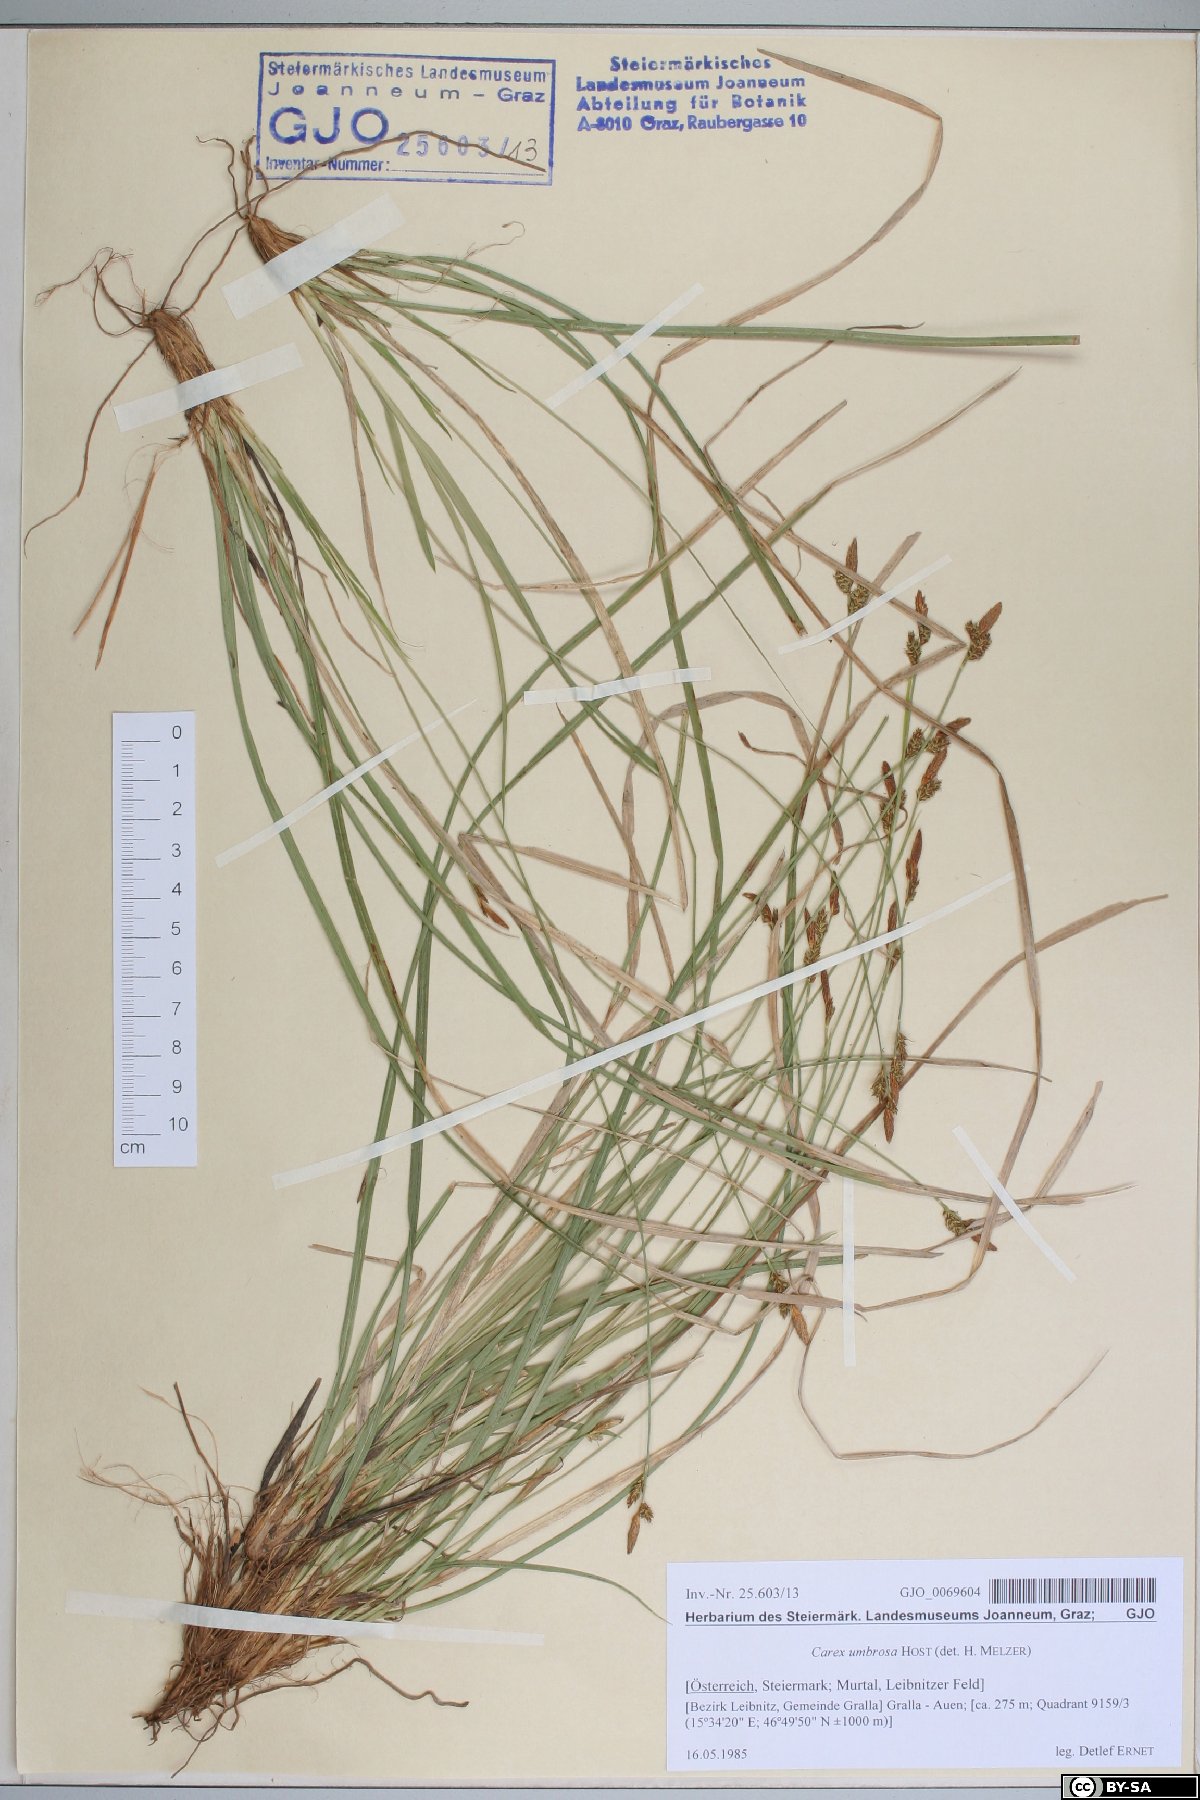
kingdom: Plantae
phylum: Tracheophyta
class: Liliopsida
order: Poales
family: Cyperaceae
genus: Carex
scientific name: Carex umbrosa
